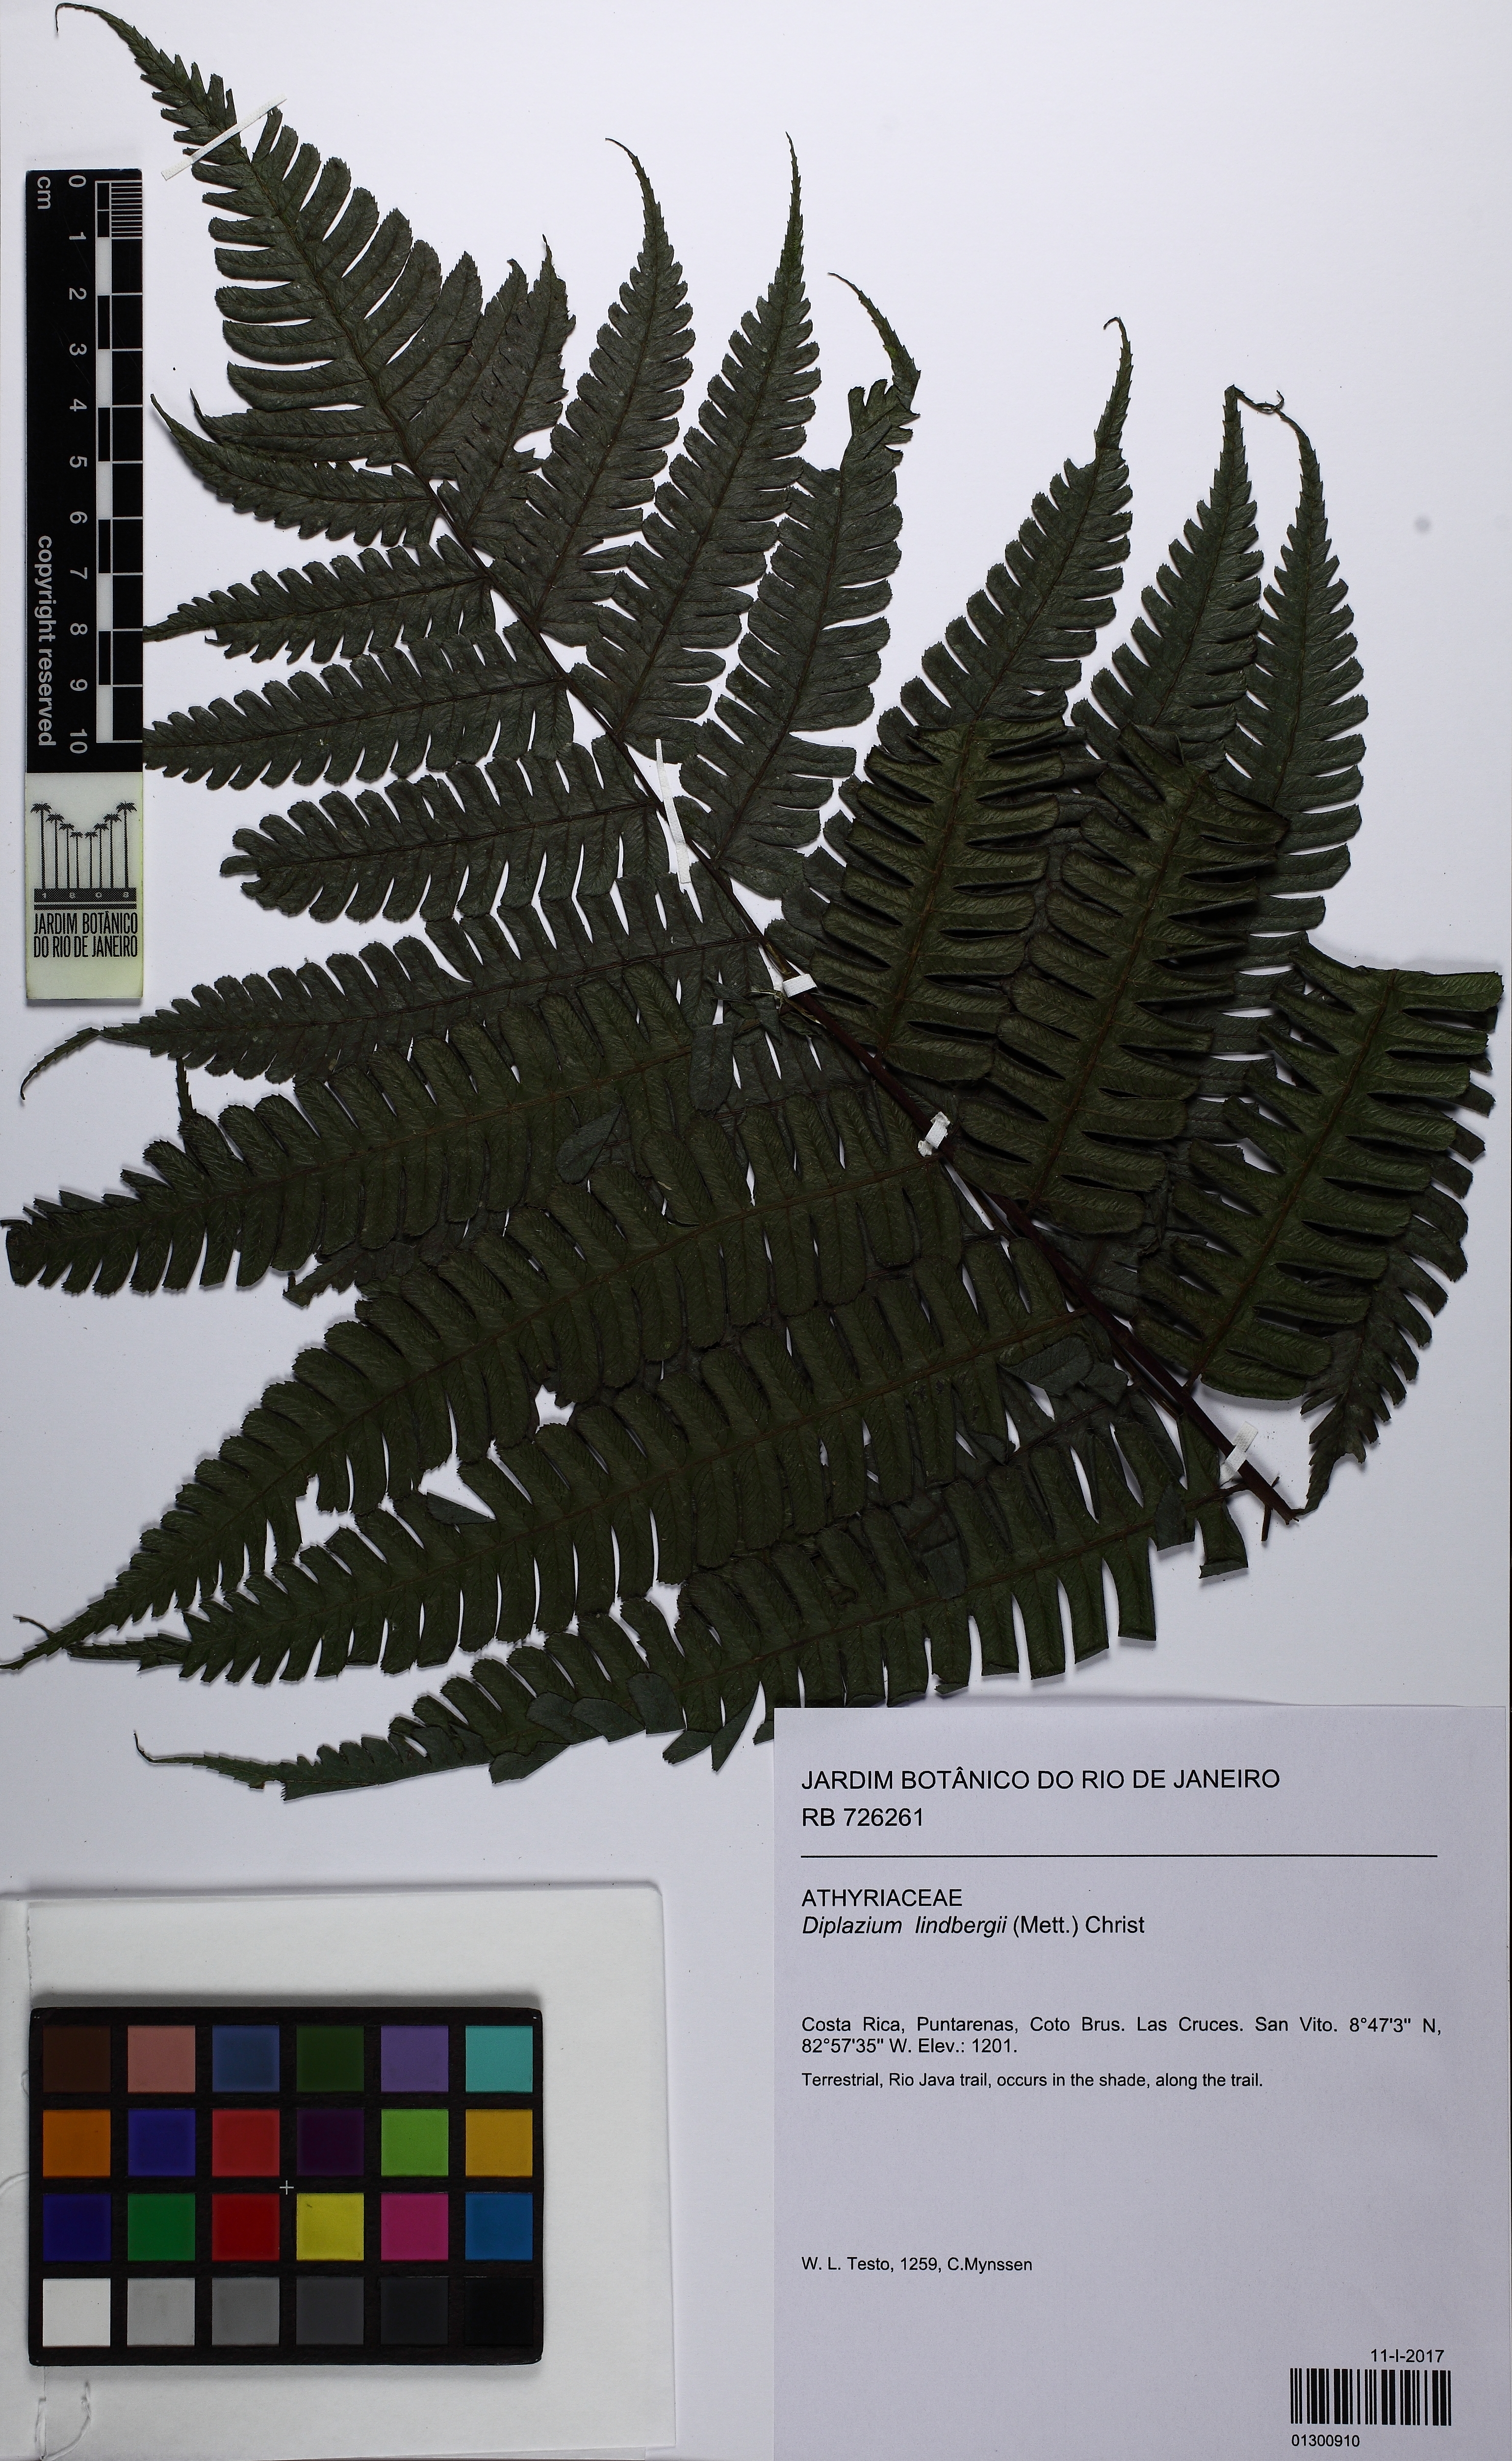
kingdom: Plantae
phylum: Tracheophyta
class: Polypodiopsida
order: Polypodiales
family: Athyriaceae
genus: Diplazium
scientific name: Diplazium lindbergii
